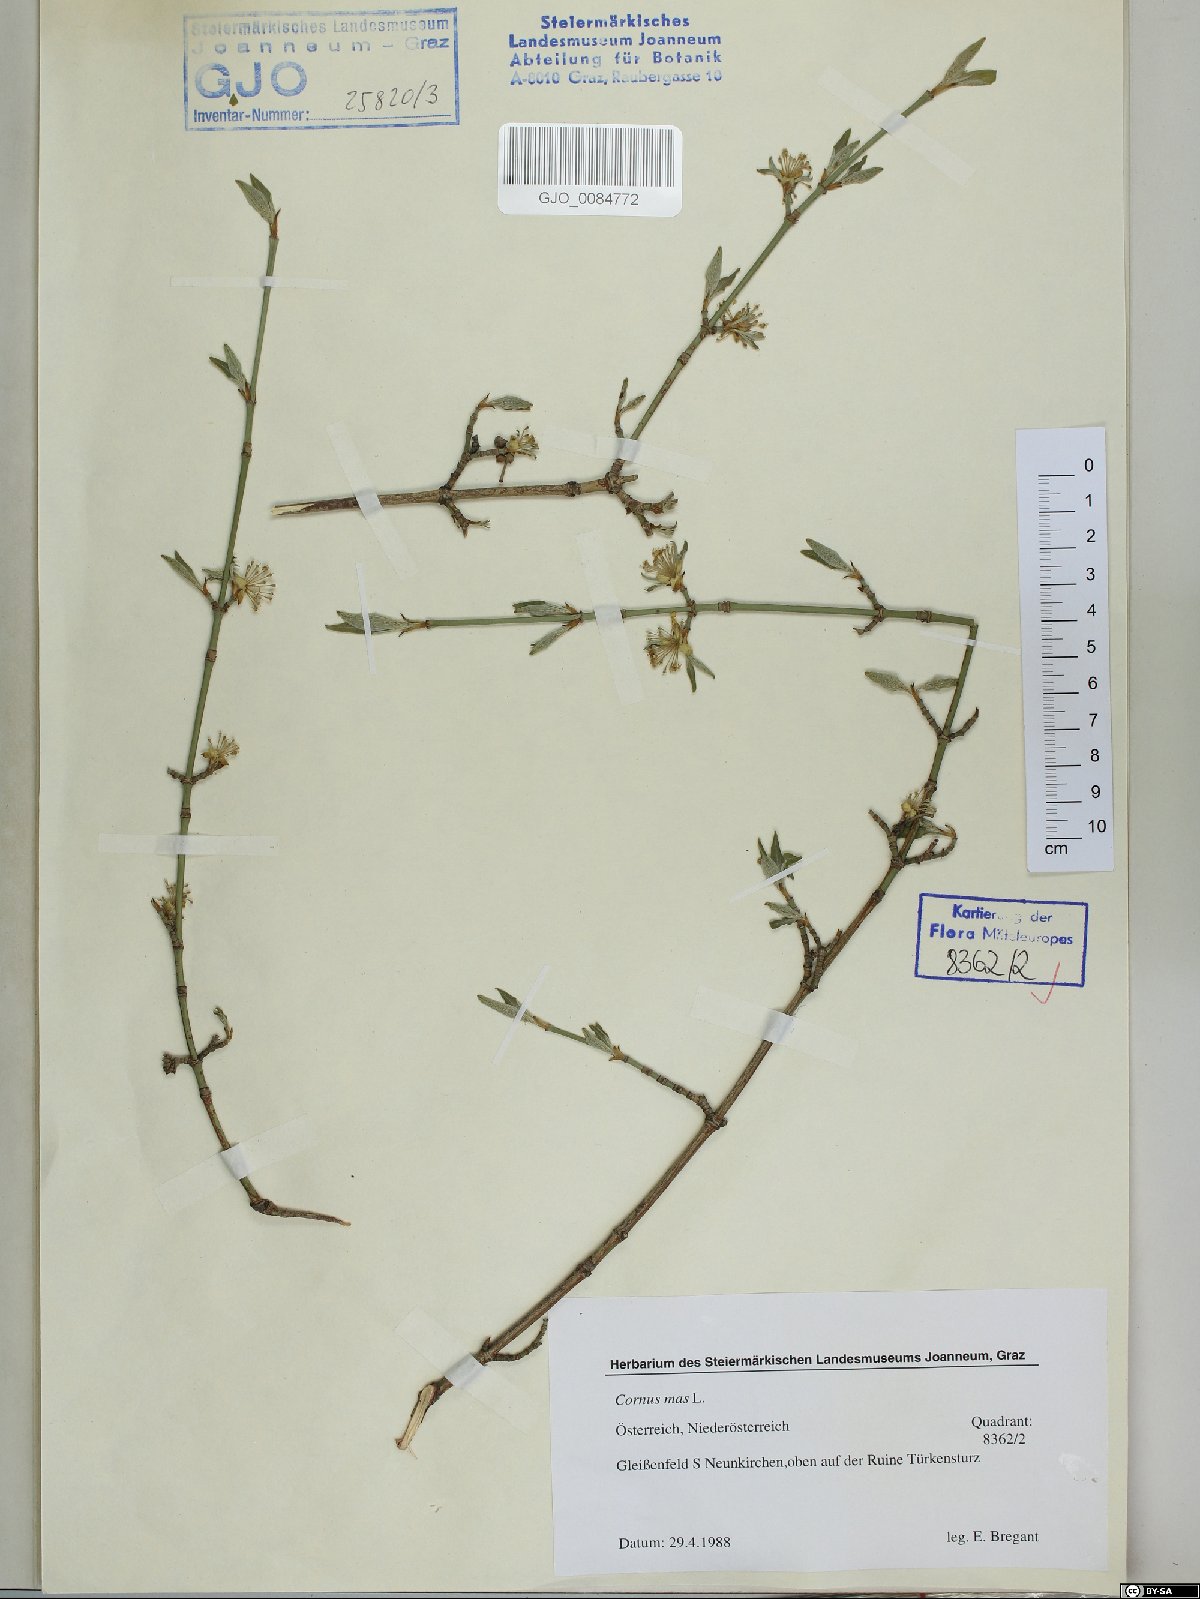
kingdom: Plantae
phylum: Tracheophyta
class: Magnoliopsida
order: Cornales
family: Cornaceae
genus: Cornus
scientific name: Cornus mas
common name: Cornelian-cherry
